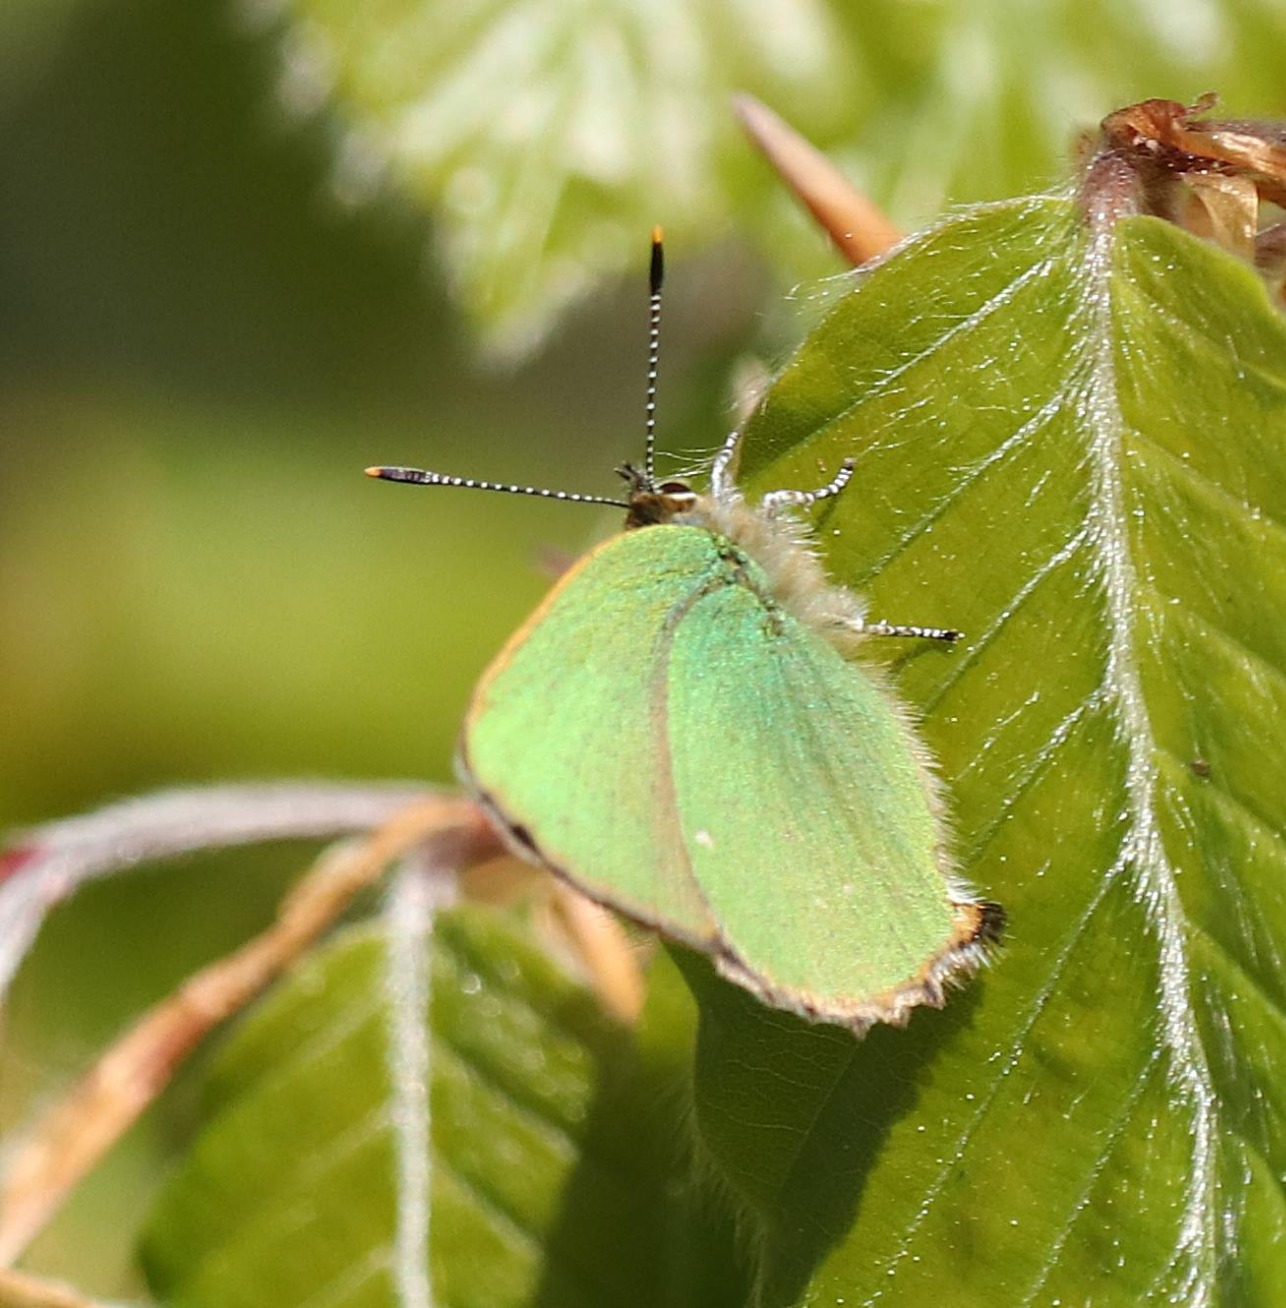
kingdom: Animalia
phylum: Arthropoda
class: Insecta
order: Lepidoptera
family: Lycaenidae
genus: Callophrys
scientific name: Callophrys rubi
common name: Grøn busksommerfugl
